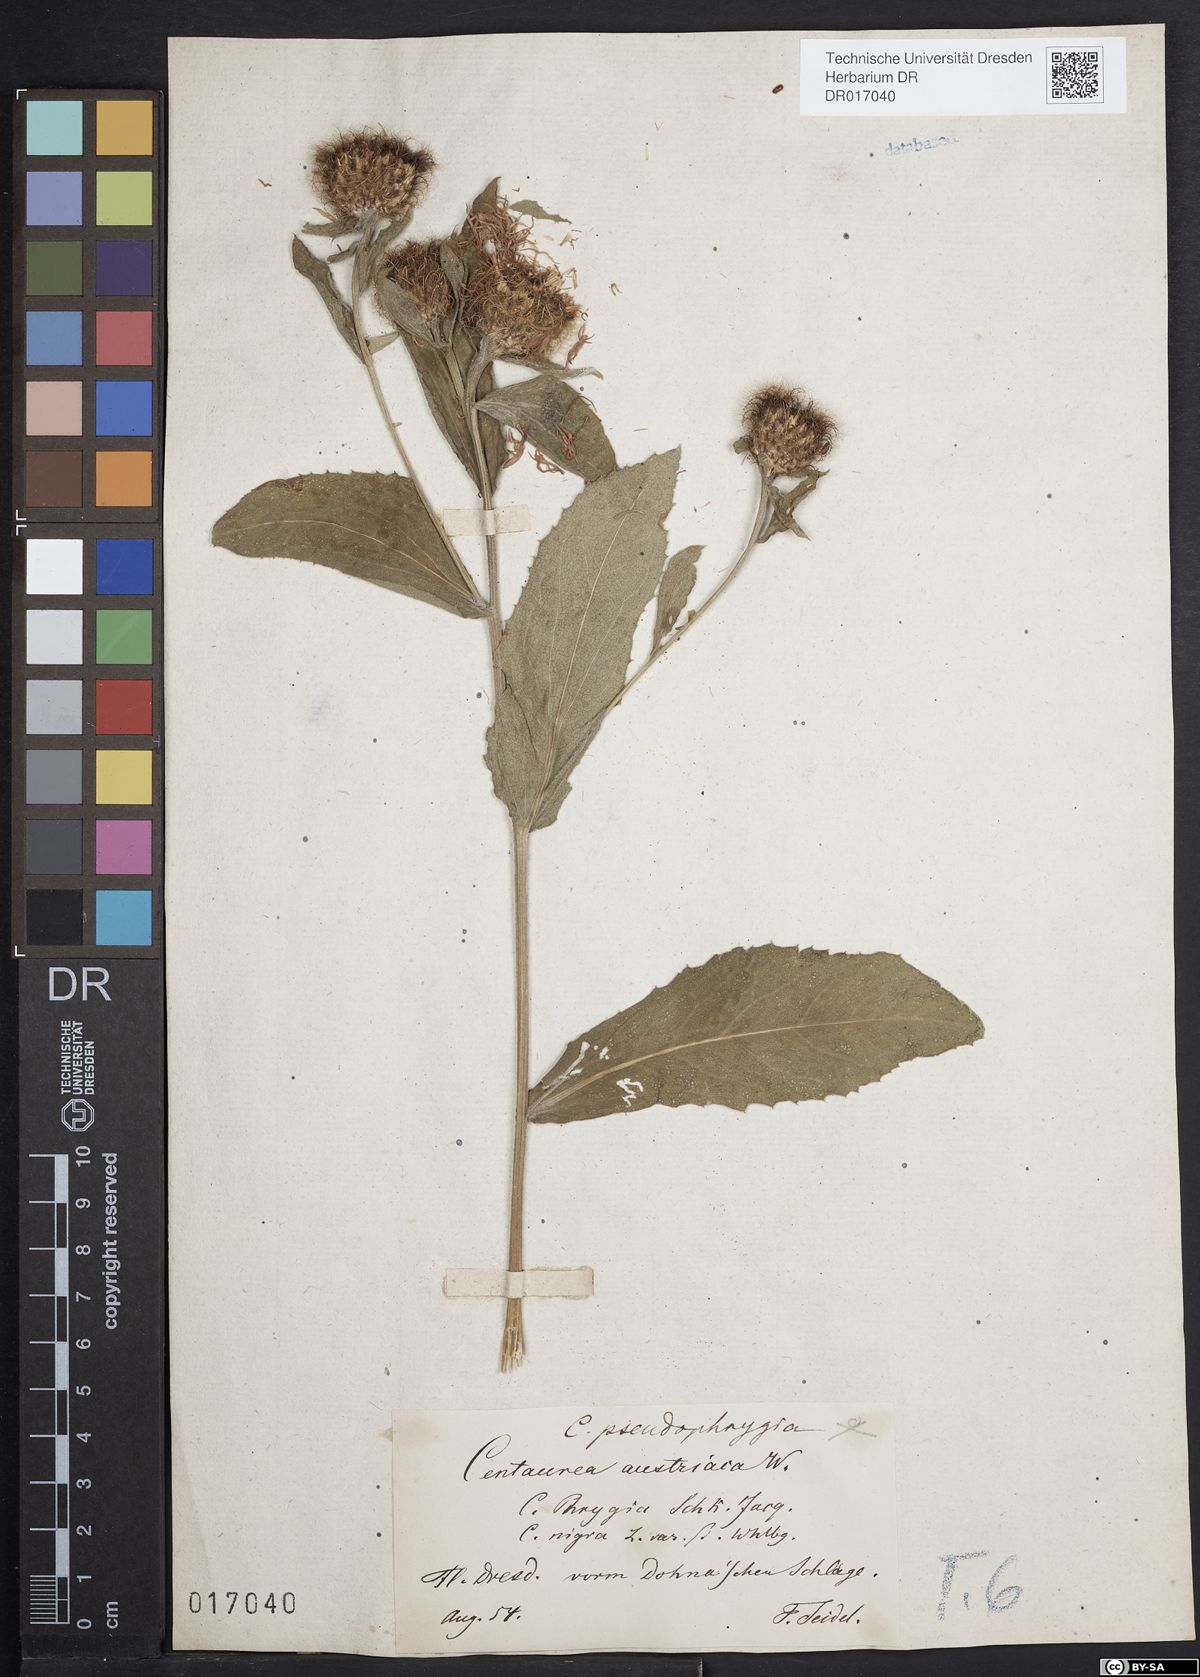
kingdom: Plantae
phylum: Tracheophyta
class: Magnoliopsida
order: Asterales
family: Asteraceae
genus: Centaurea
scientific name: Centaurea pseudophrygia
